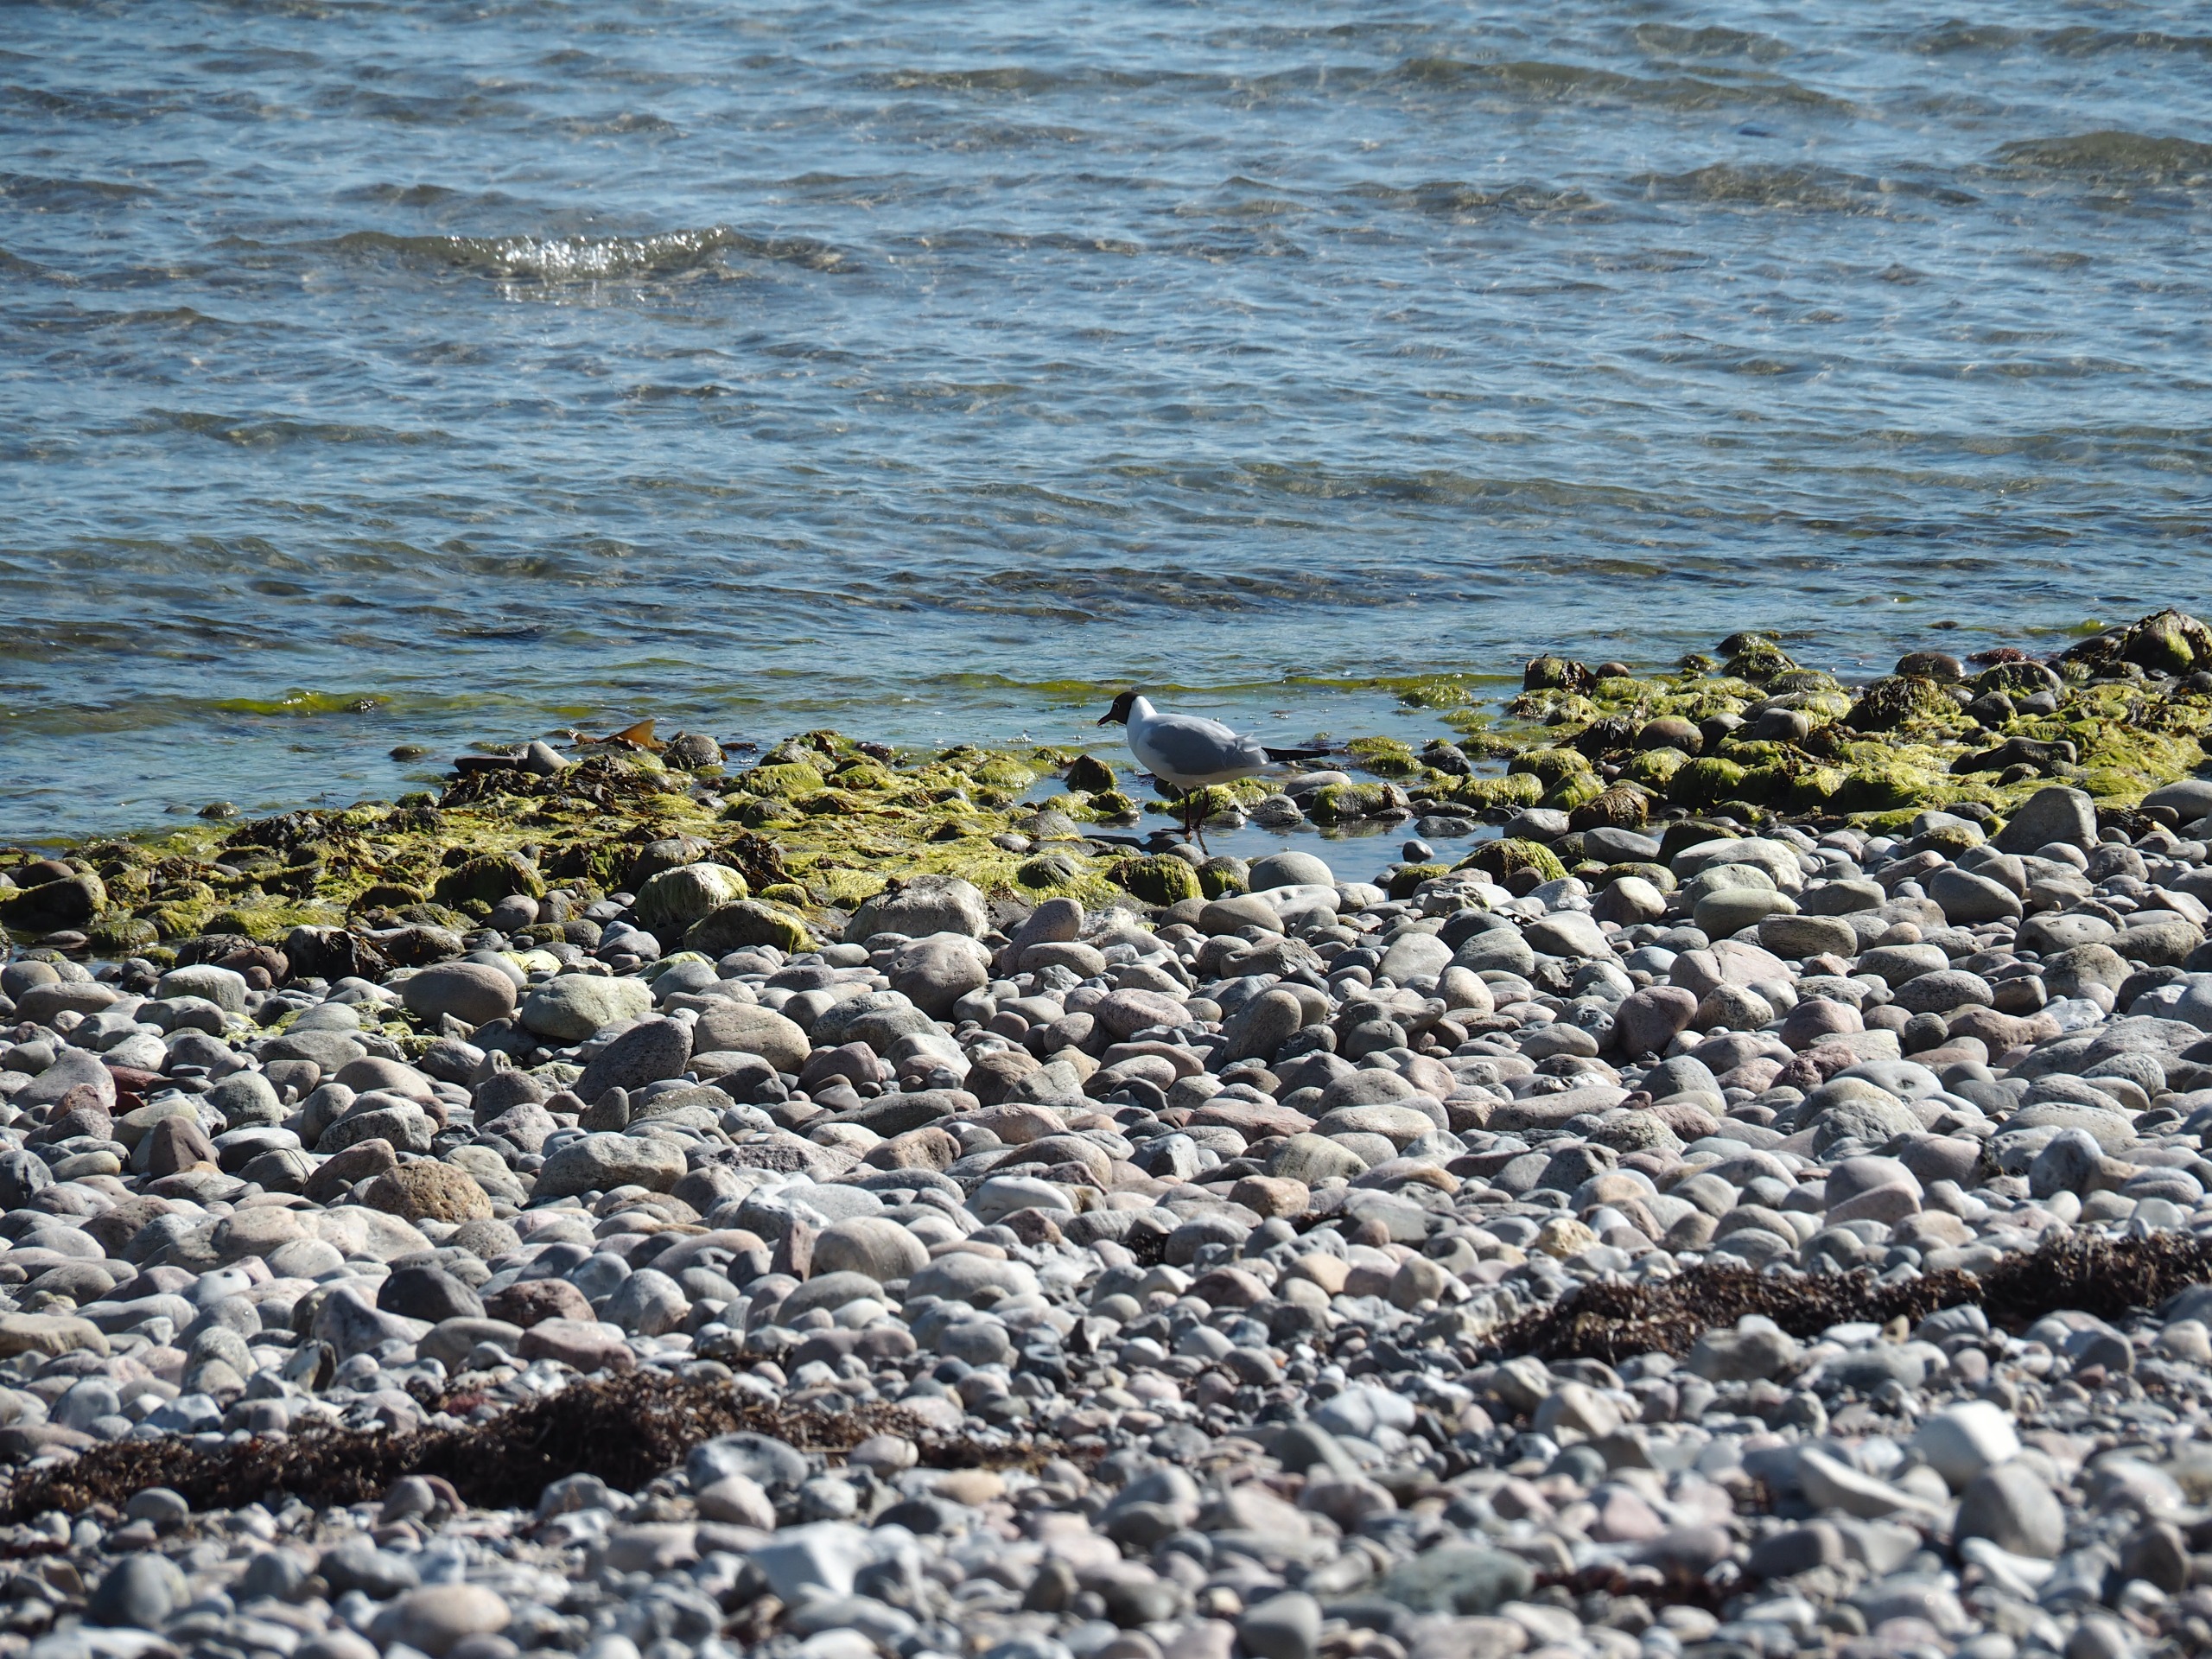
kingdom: Animalia
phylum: Chordata
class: Aves
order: Charadriiformes
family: Laridae
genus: Chroicocephalus
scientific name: Chroicocephalus ridibundus
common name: Hættemåge
